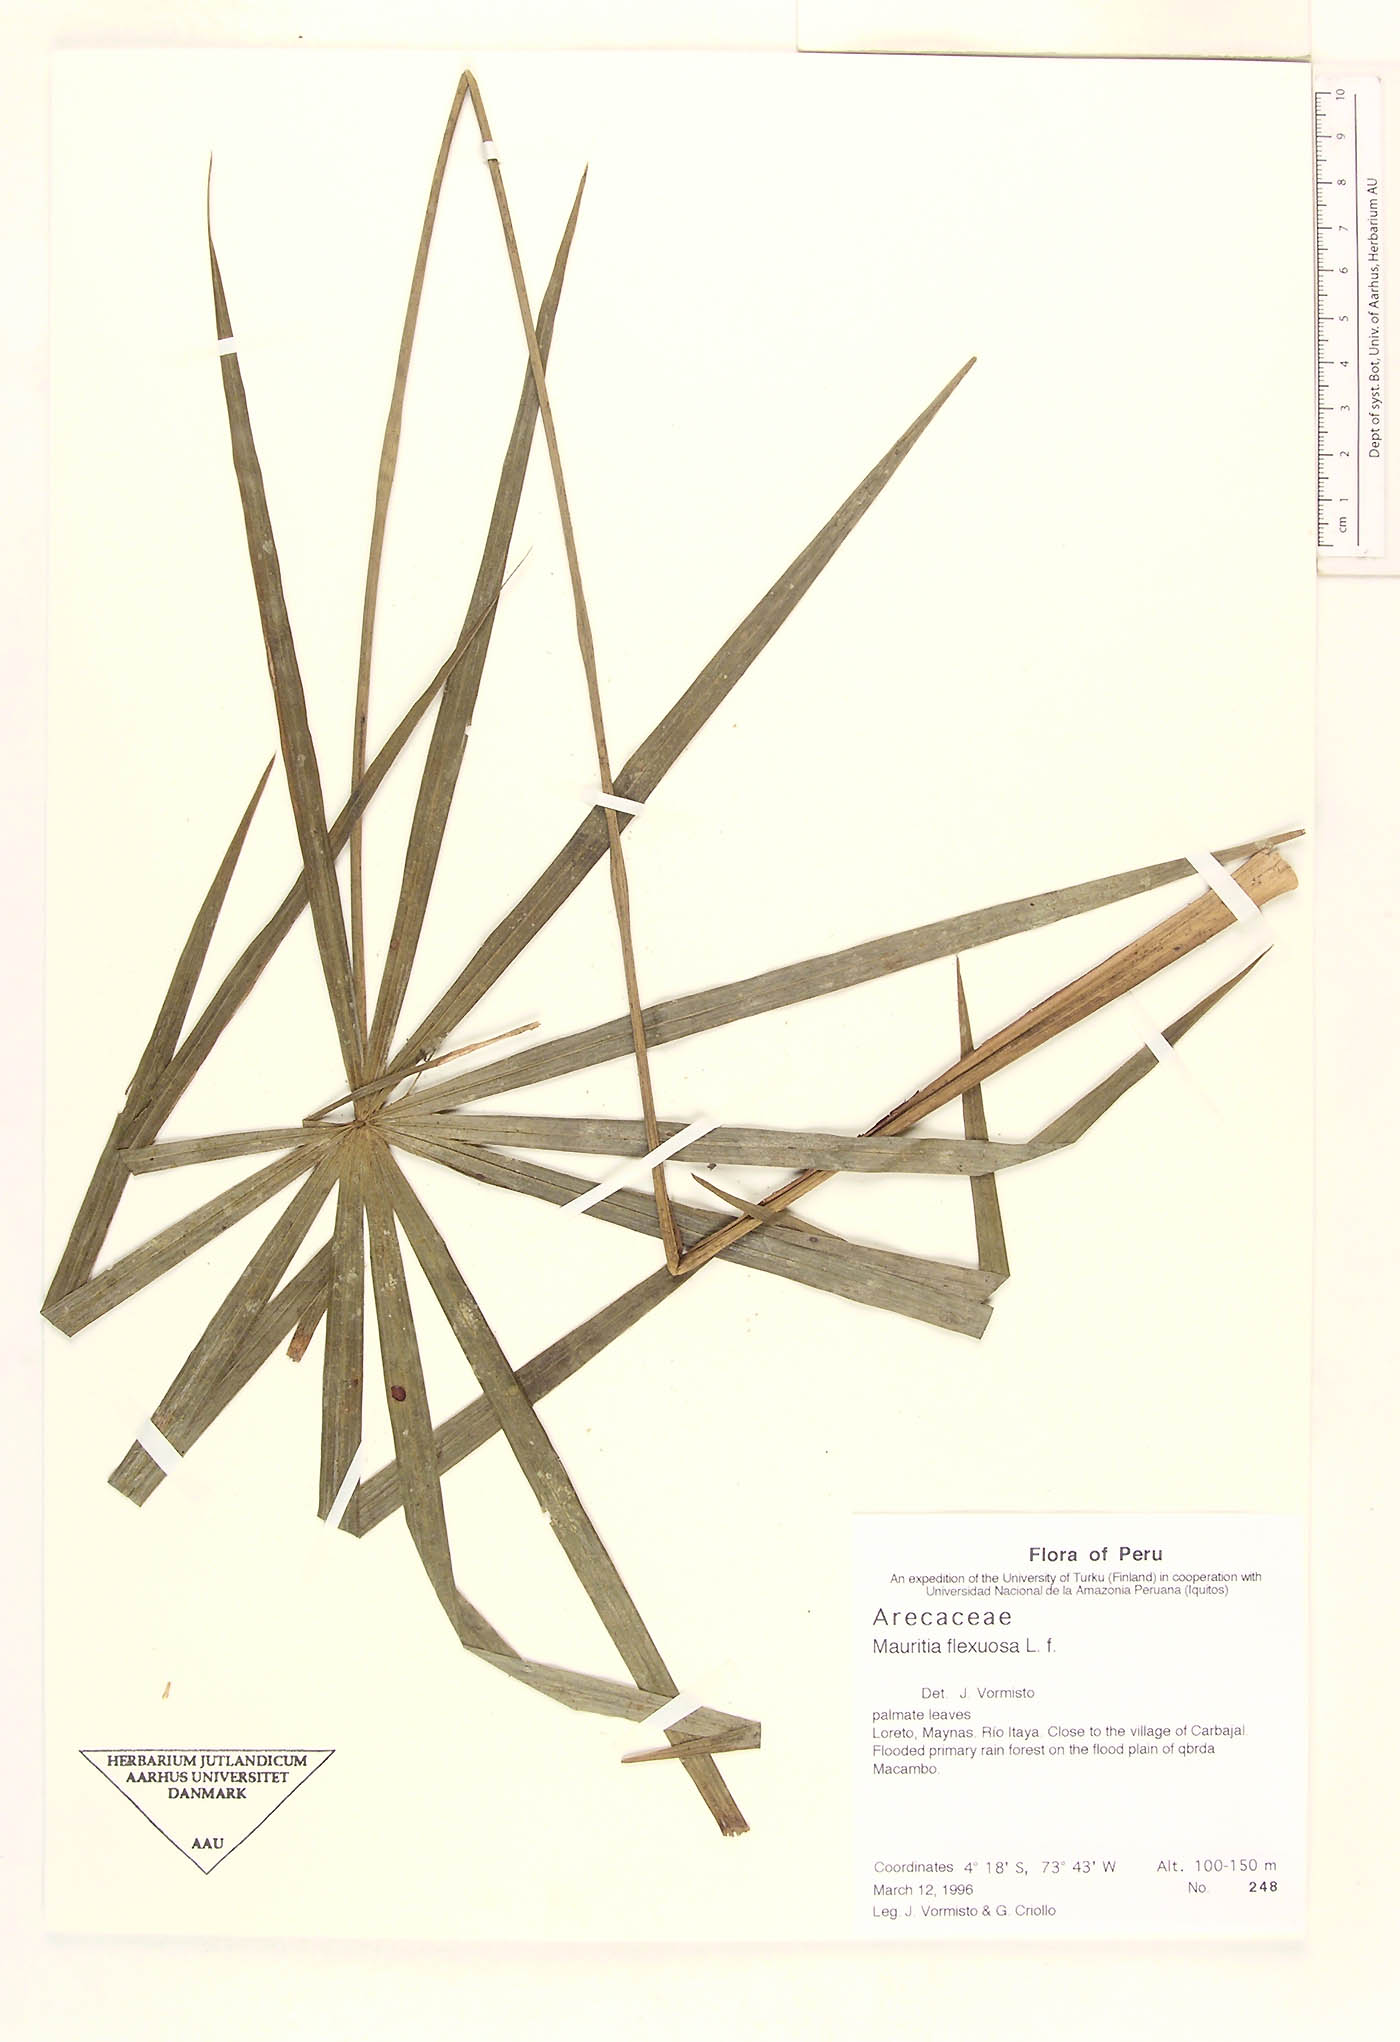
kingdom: Plantae
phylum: Tracheophyta
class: Liliopsida
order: Arecales
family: Arecaceae
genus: Mauritia
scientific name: Mauritia flexuosa
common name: Tree-of-life
